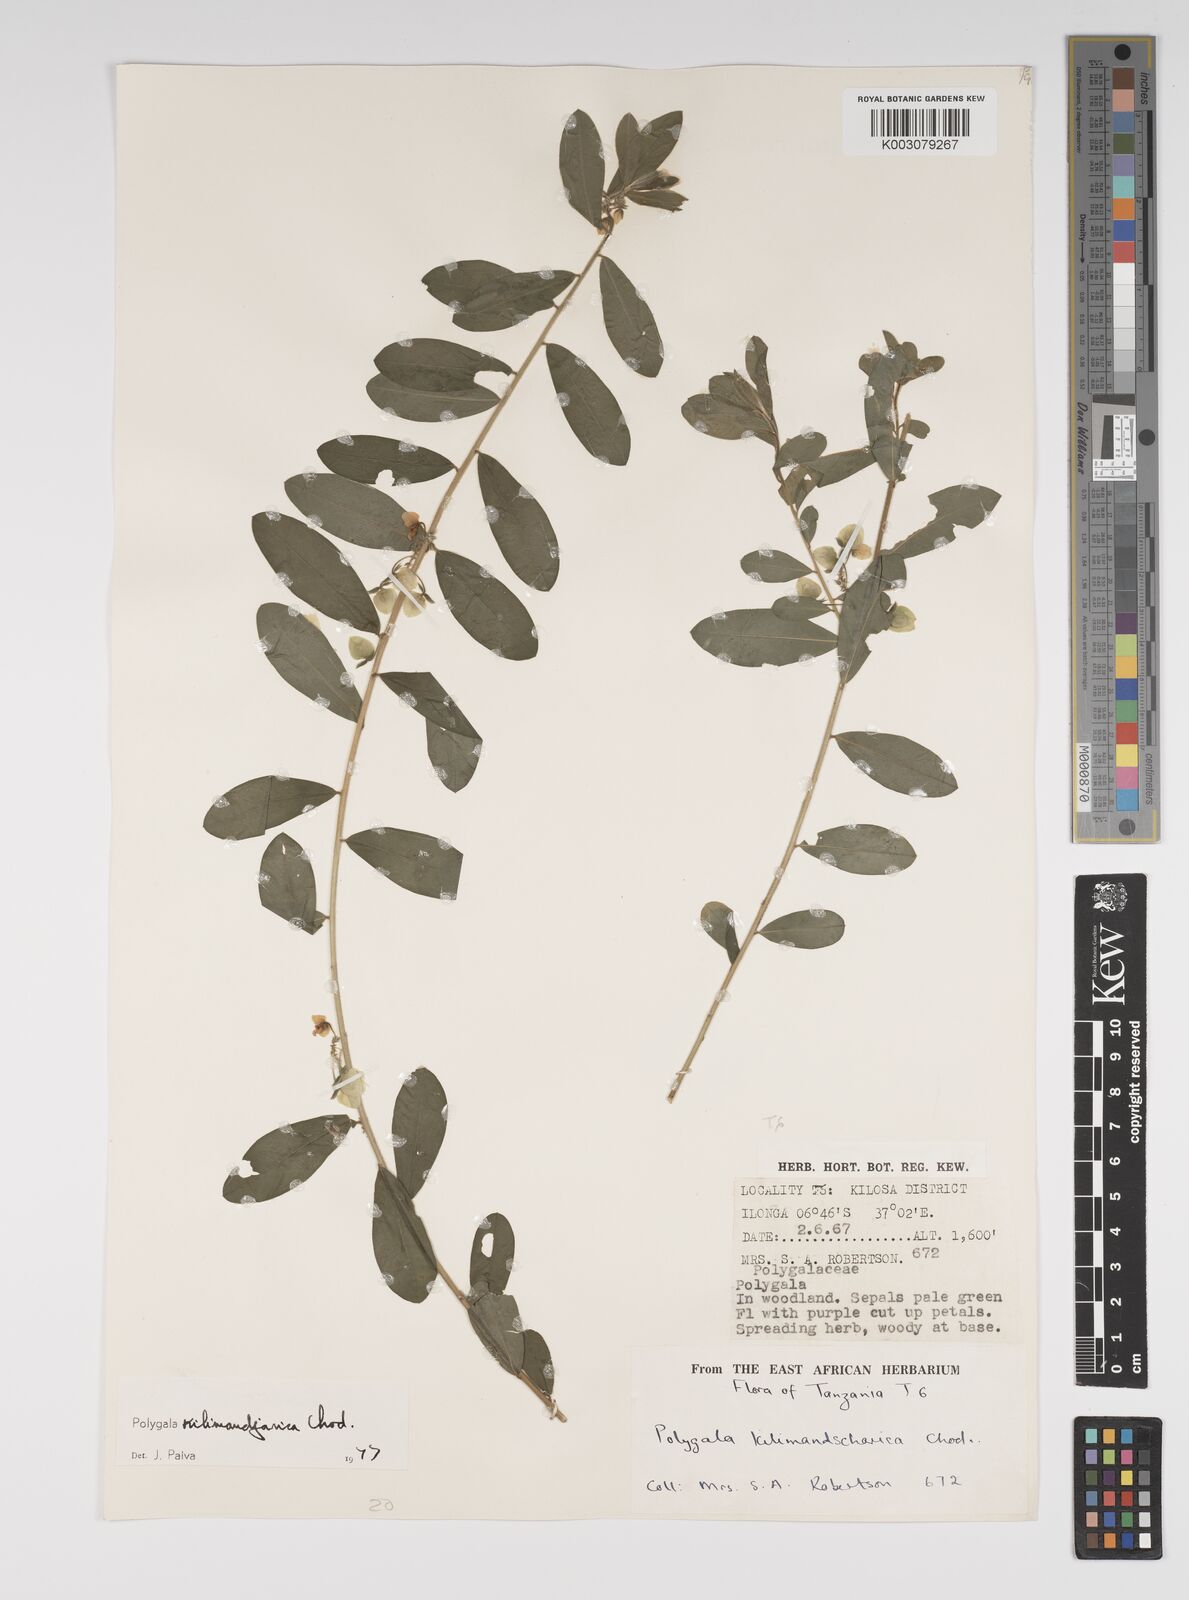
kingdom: Plantae
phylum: Tracheophyta
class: Magnoliopsida
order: Fabales
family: Polygalaceae
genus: Polygala
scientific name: Polygala kilimandjarica
